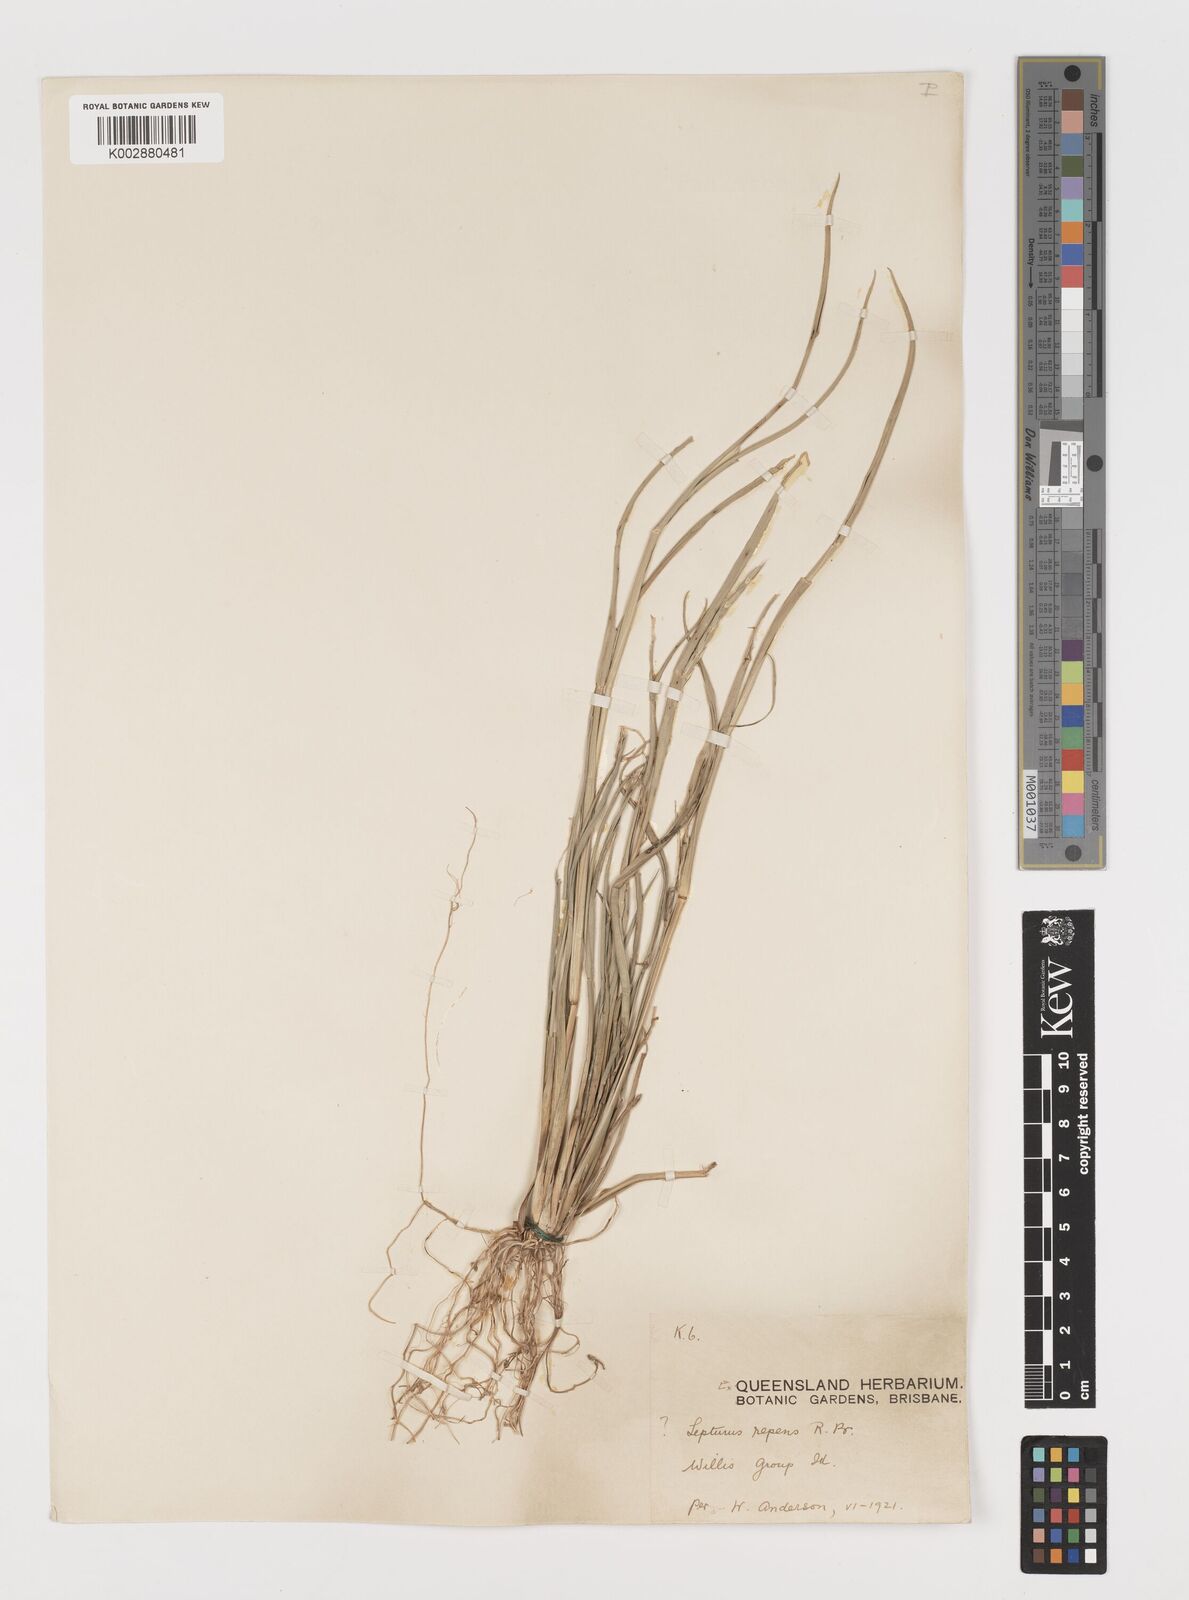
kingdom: Plantae
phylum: Tracheophyta
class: Liliopsida
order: Poales
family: Poaceae
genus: Lepturus
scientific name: Lepturus repens
